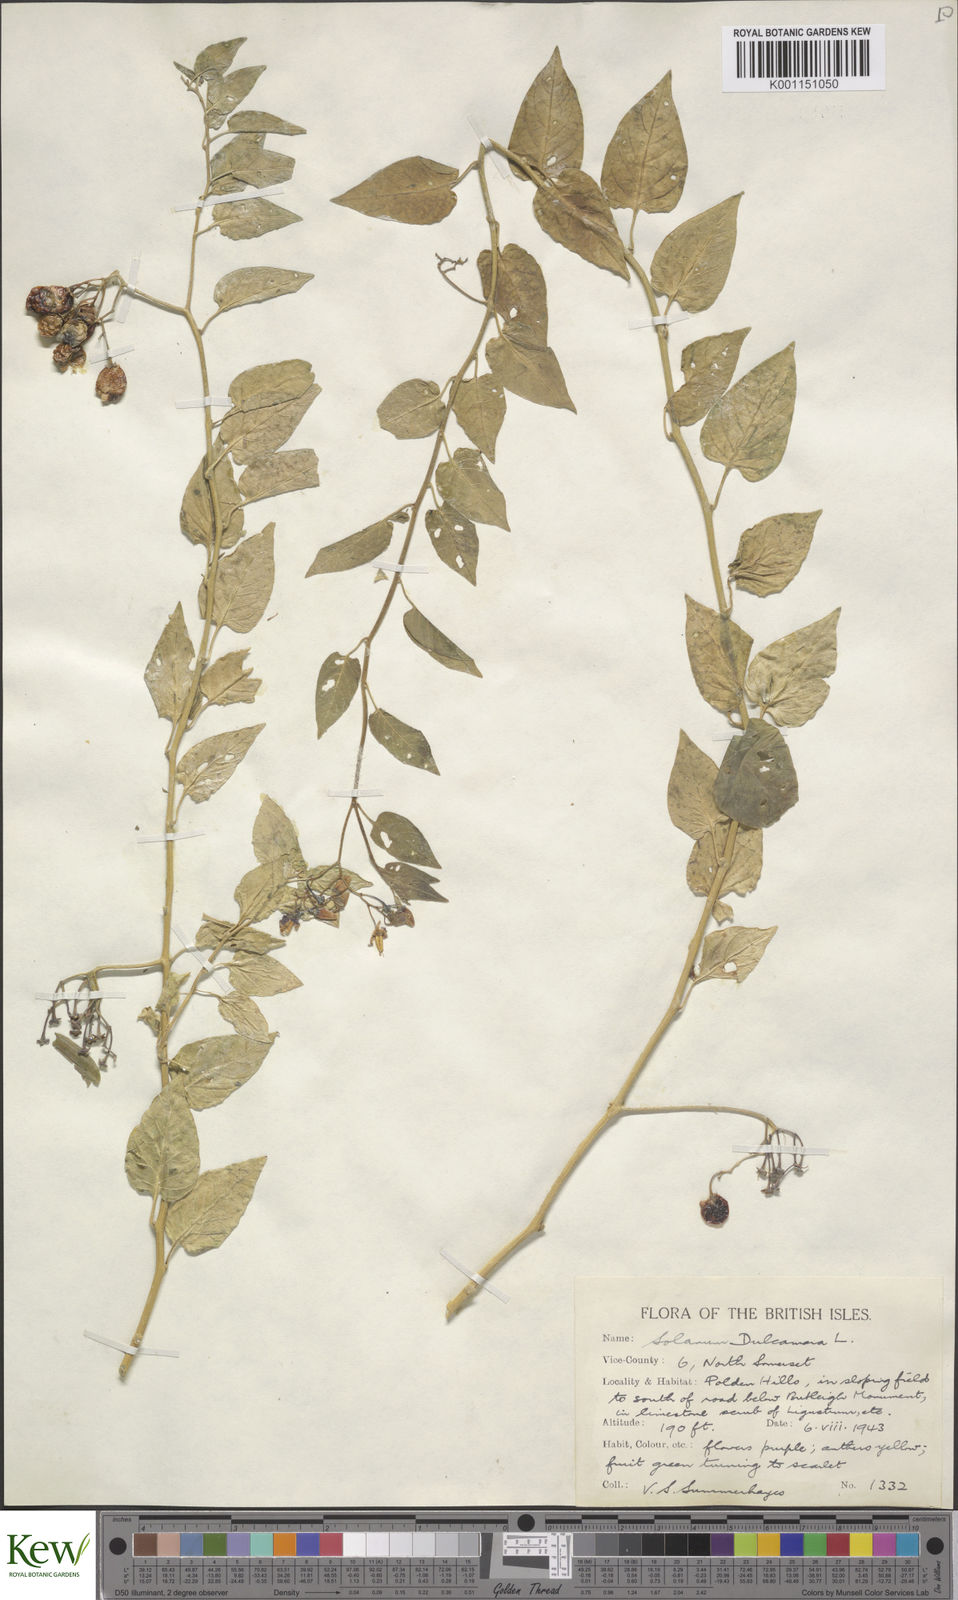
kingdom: Plantae
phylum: Tracheophyta
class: Magnoliopsida
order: Solanales
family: Solanaceae
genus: Solanum
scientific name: Solanum dulcamara
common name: Climbing nightshade
